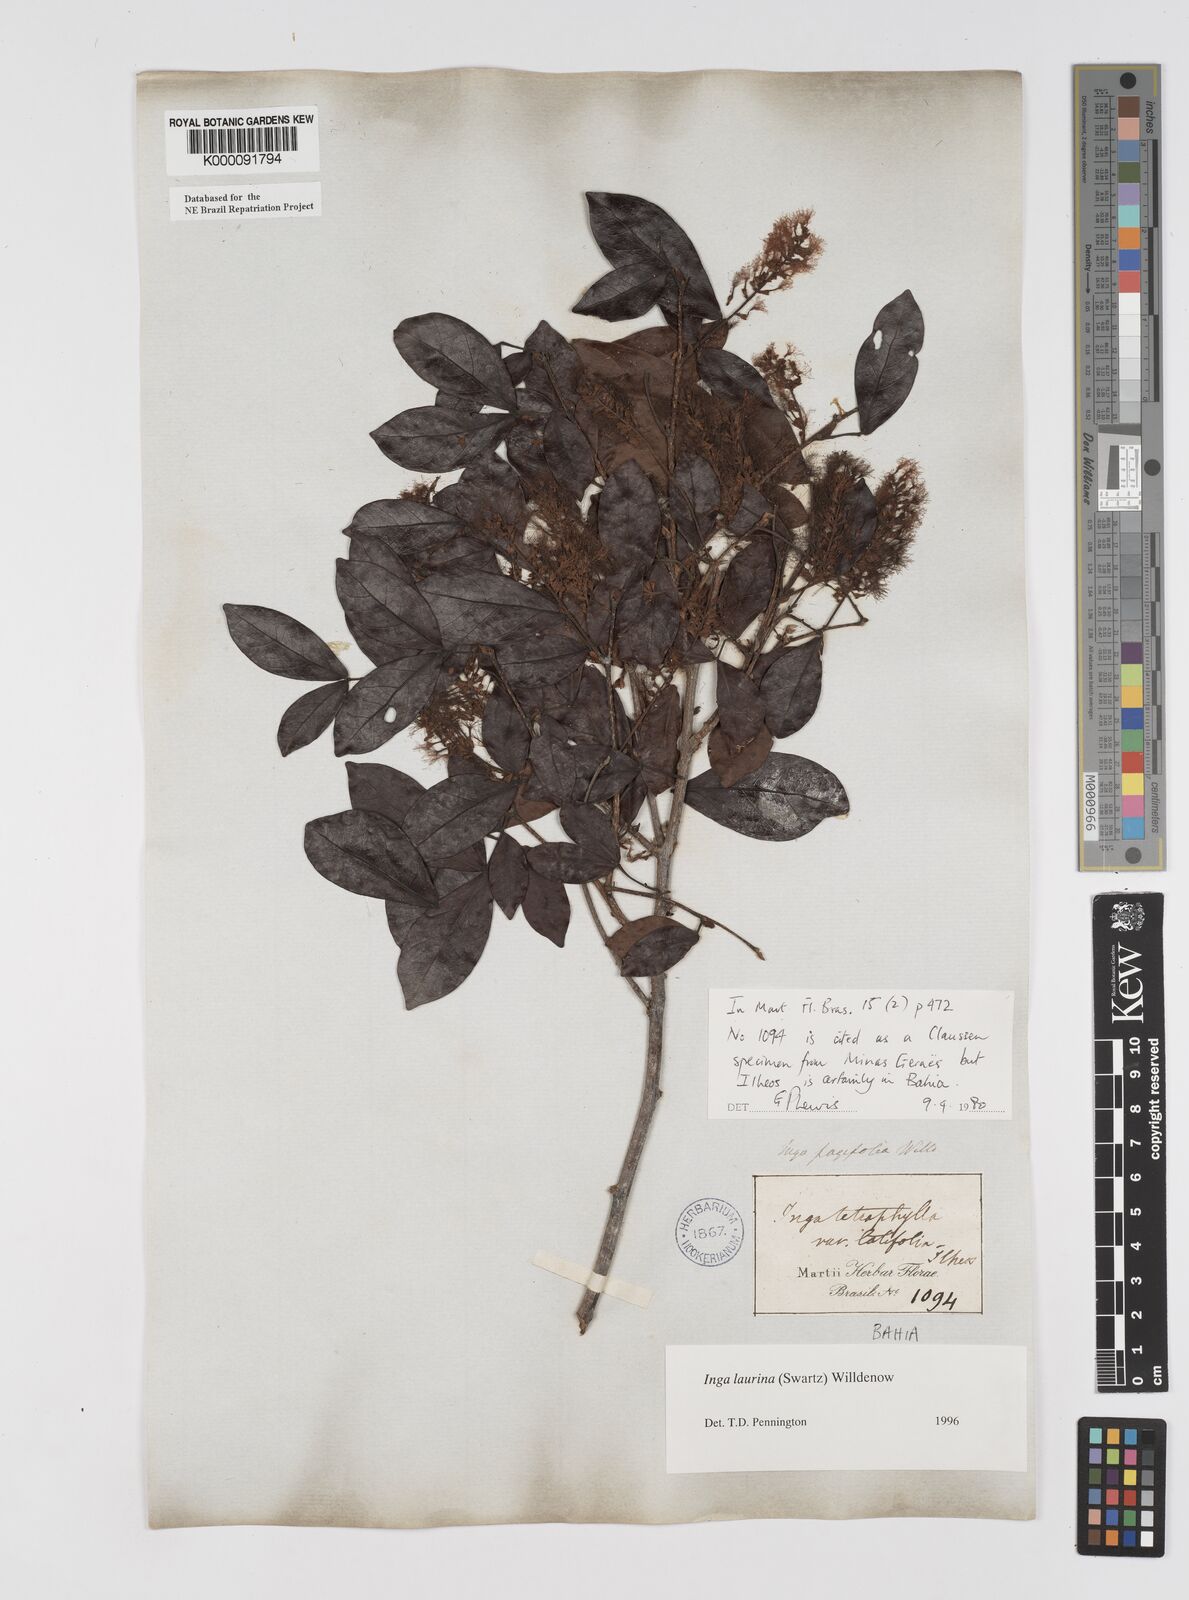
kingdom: Plantae
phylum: Tracheophyta
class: Magnoliopsida
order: Fabales
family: Fabaceae
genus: Inga
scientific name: Inga laurina
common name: Red wood
